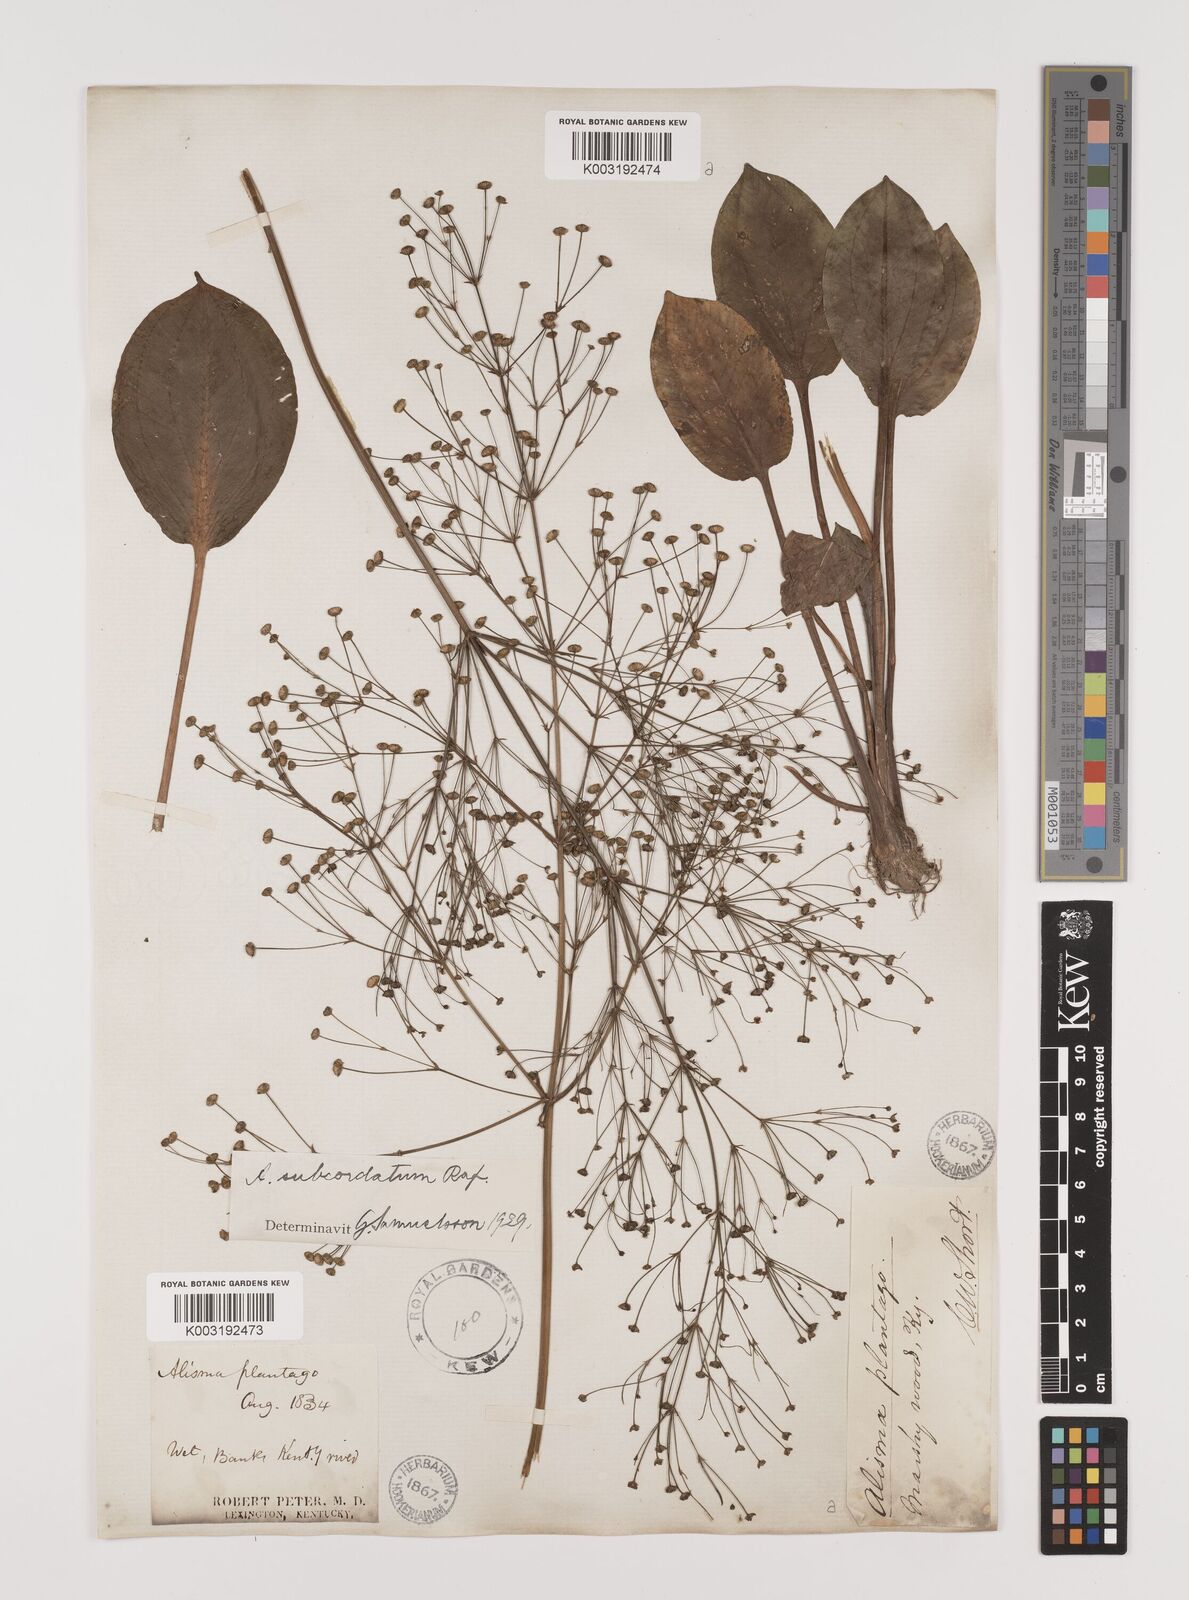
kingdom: Plantae
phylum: Tracheophyta
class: Liliopsida
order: Alismatales
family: Alismataceae
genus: Alisma
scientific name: Alisma subcordatum
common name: Southern water-plantain
